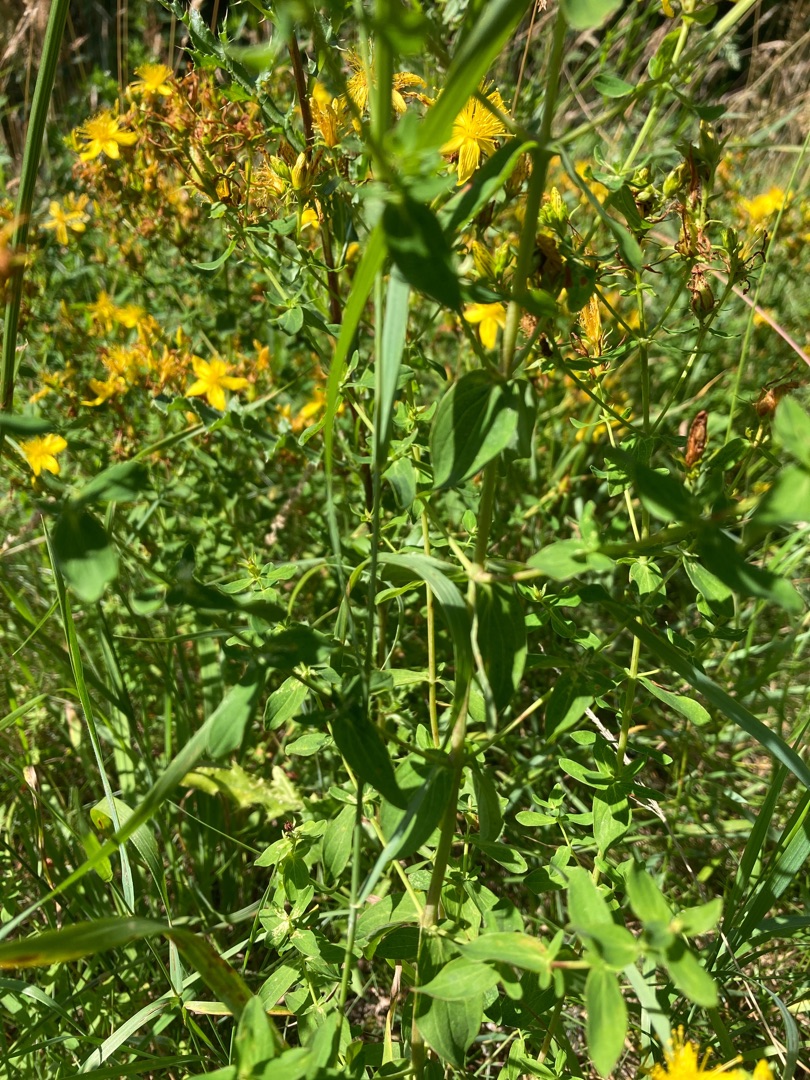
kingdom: Plantae
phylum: Tracheophyta
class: Magnoliopsida
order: Malpighiales
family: Hypericaceae
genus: Hypericum
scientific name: Hypericum perforatum
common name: Prikbladet perikon
